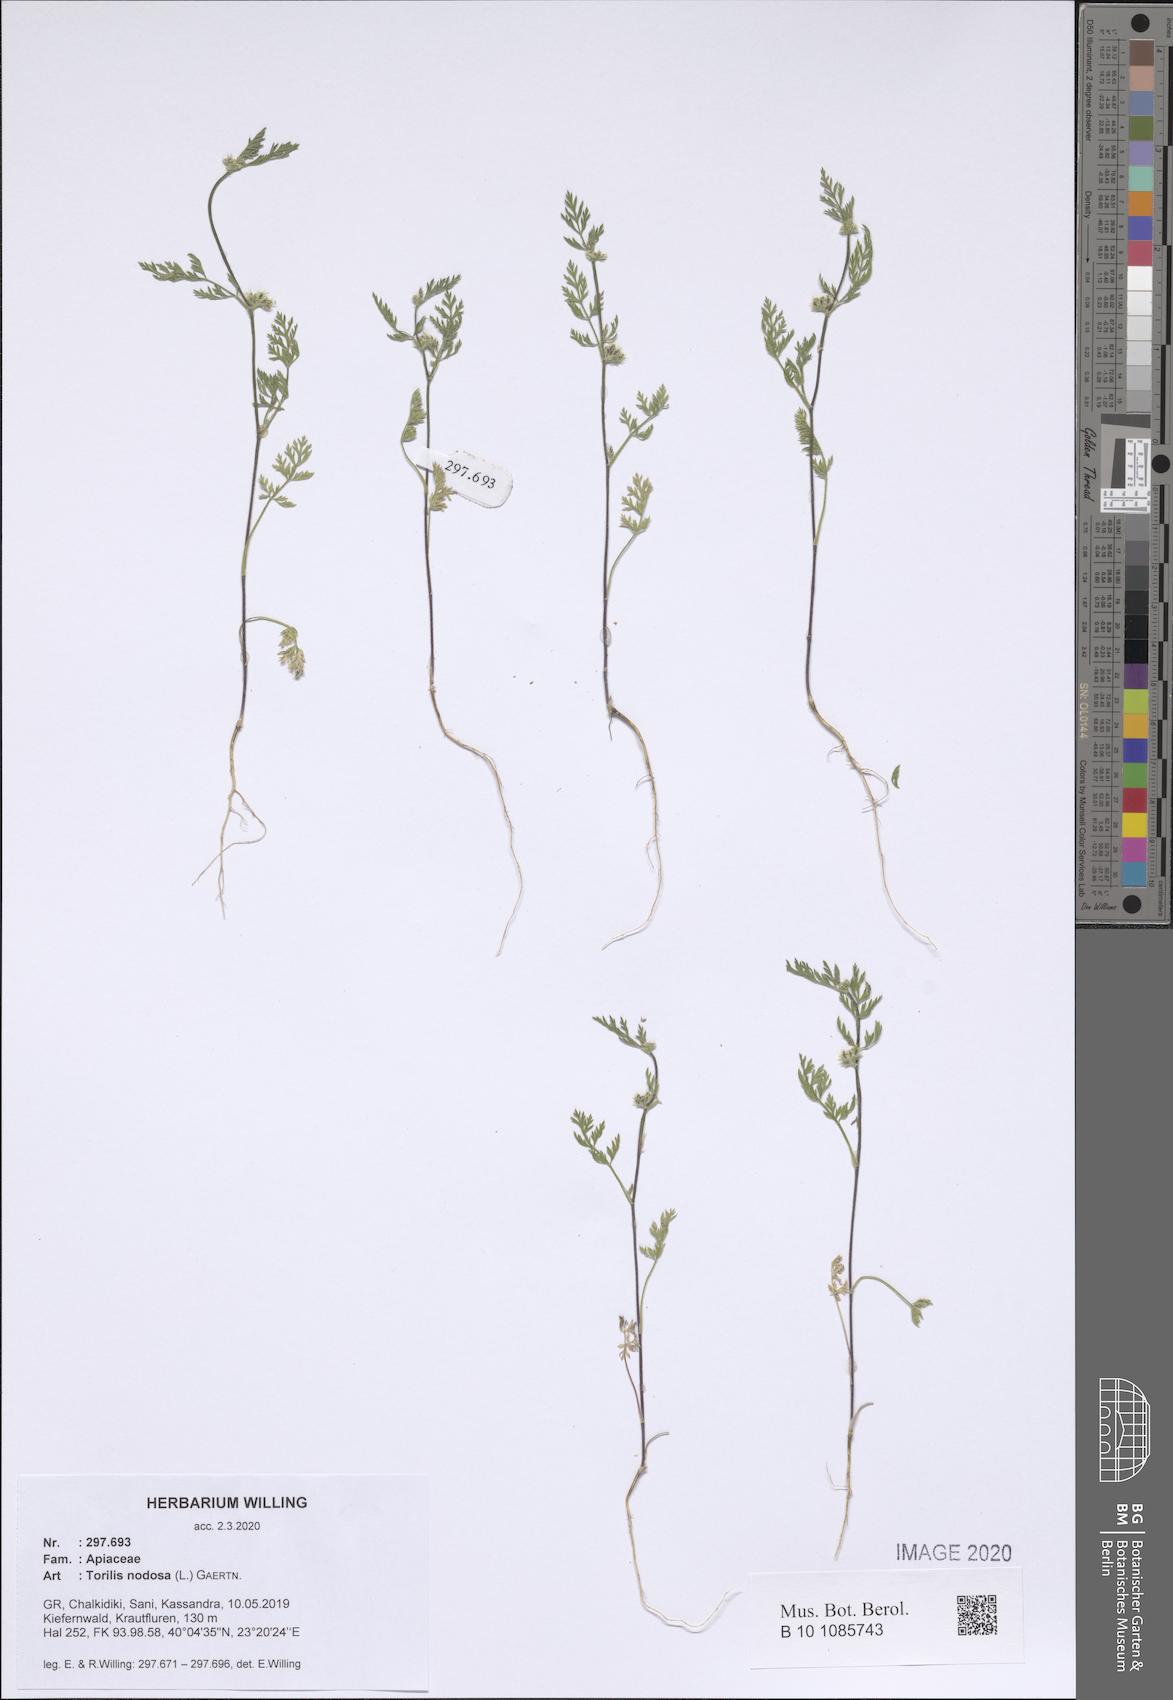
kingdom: Plantae
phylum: Tracheophyta
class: Magnoliopsida
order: Apiales
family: Apiaceae
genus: Torilis
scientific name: Torilis nodosa
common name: Knotted hedge-parsley
